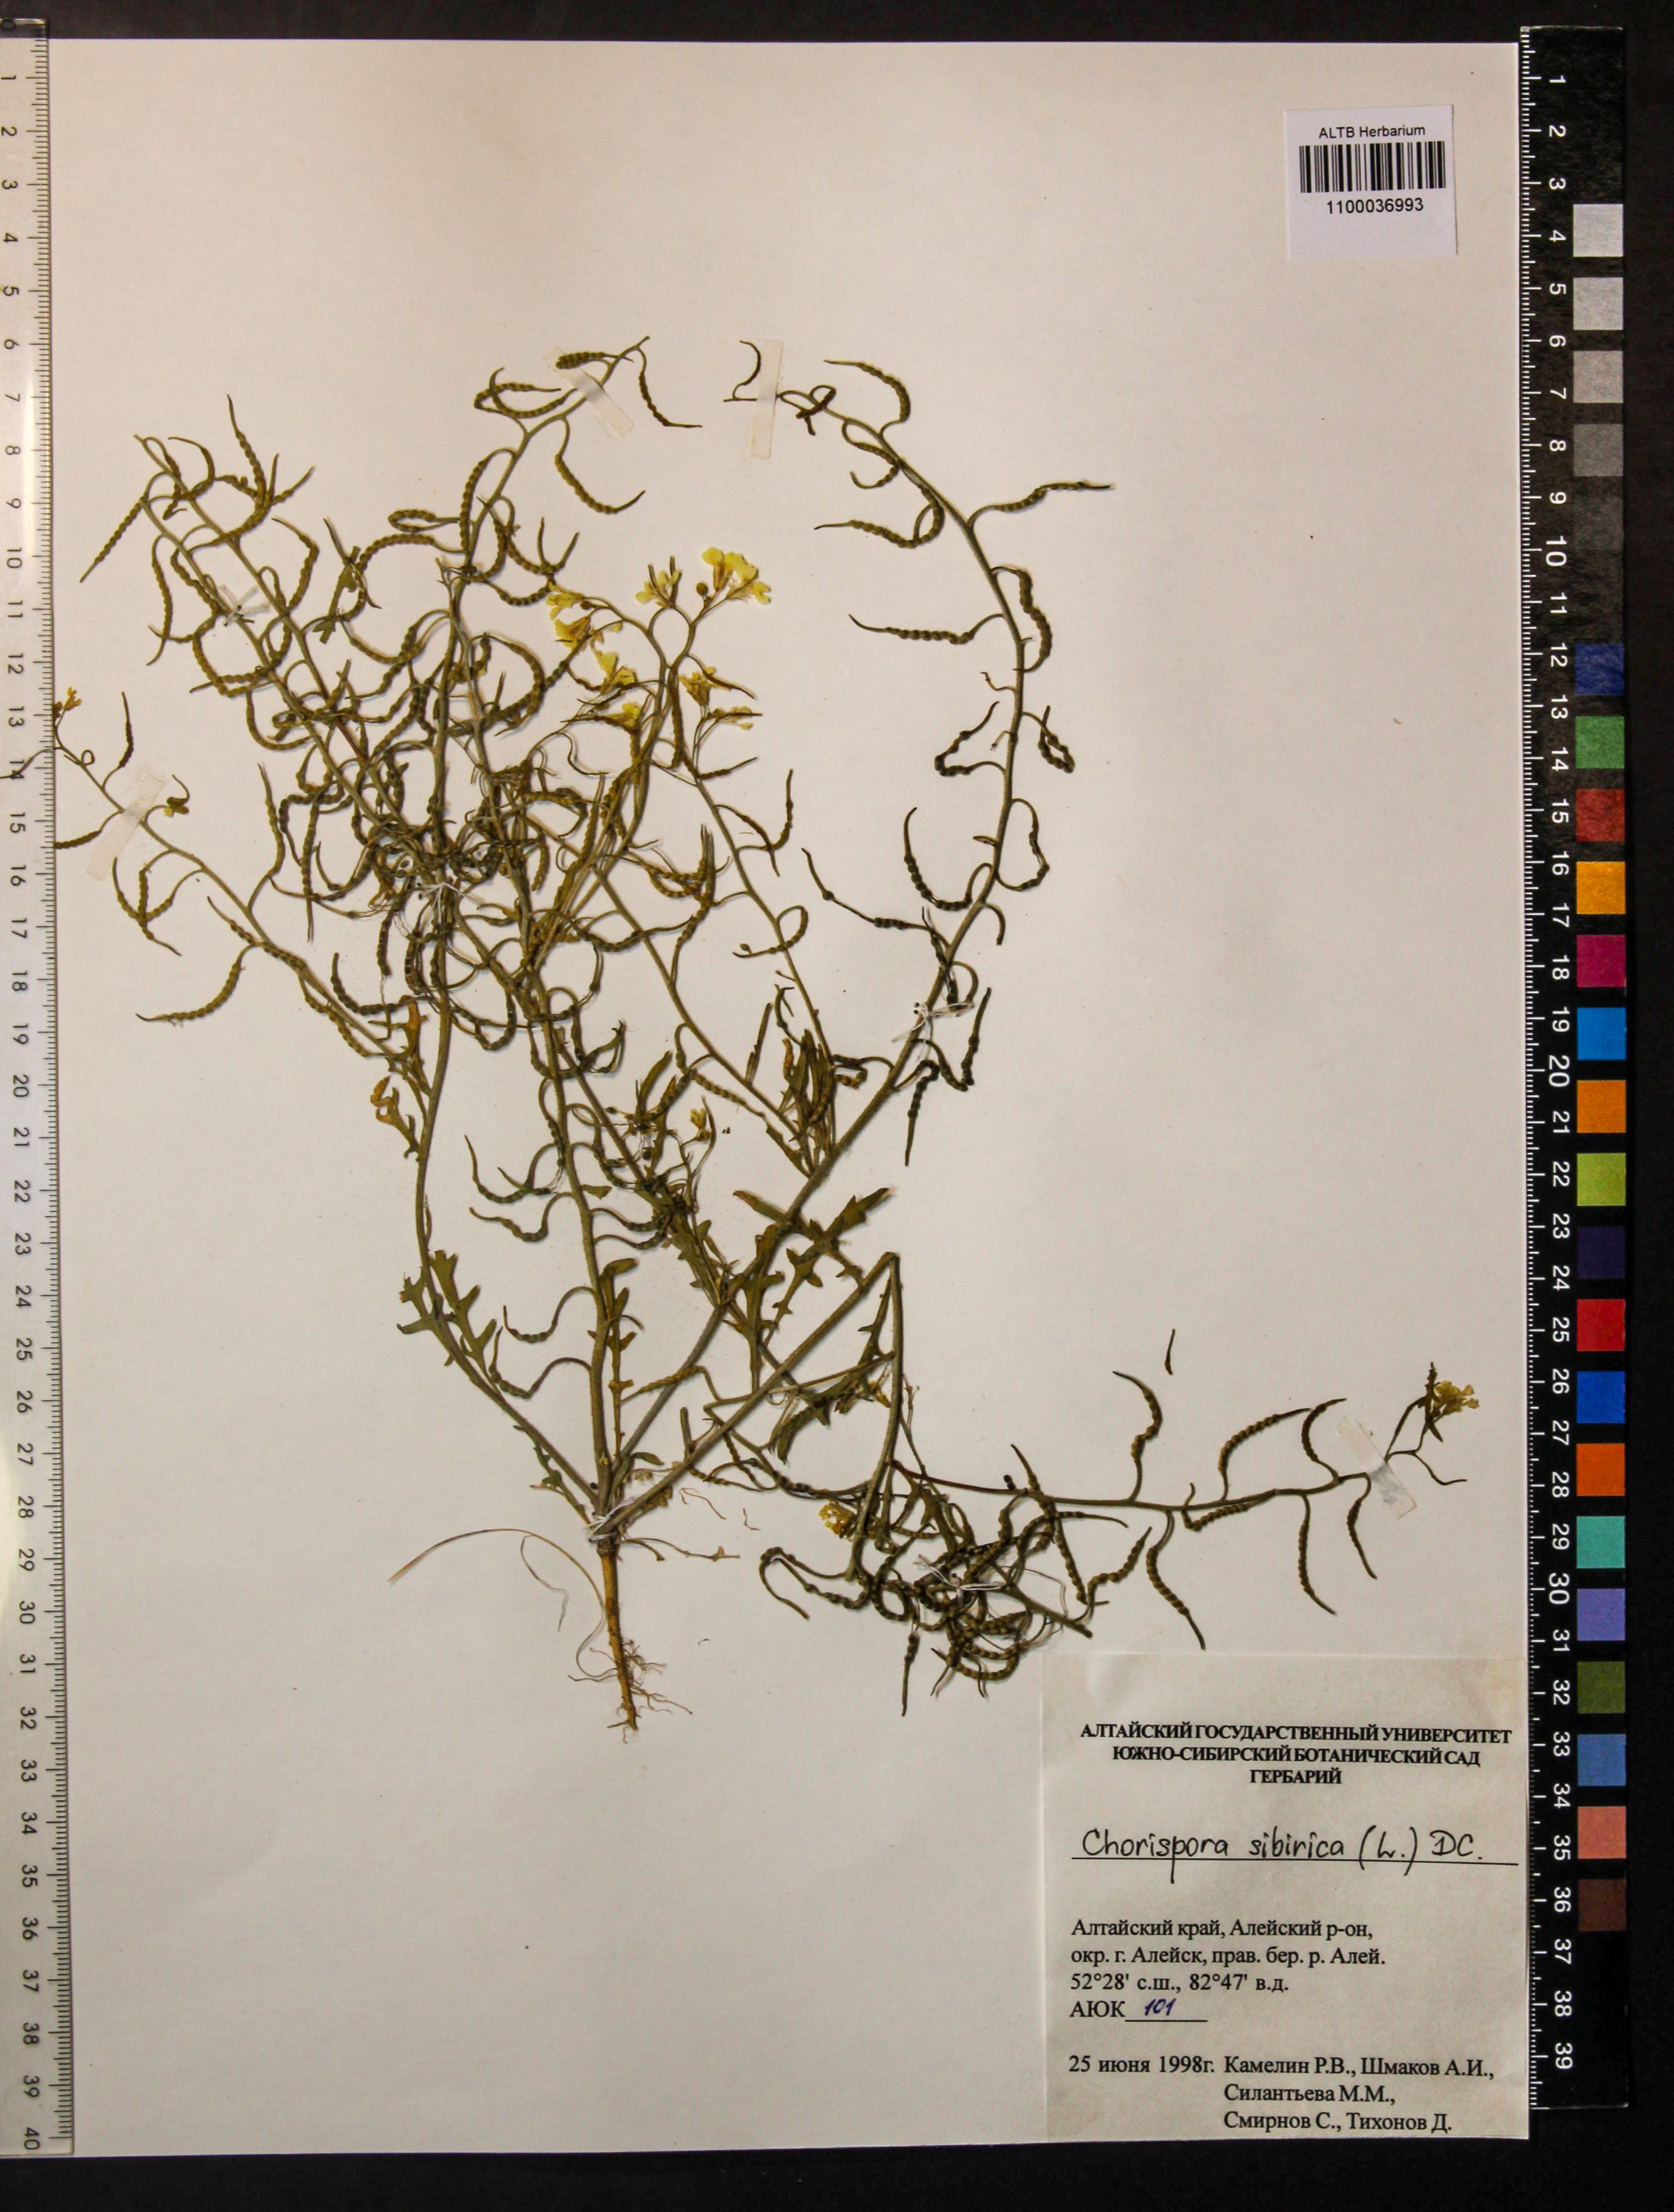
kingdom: Plantae
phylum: Tracheophyta
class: Magnoliopsida
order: Brassicales
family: Brassicaceae
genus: Chorispora
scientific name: Chorispora sibirica
